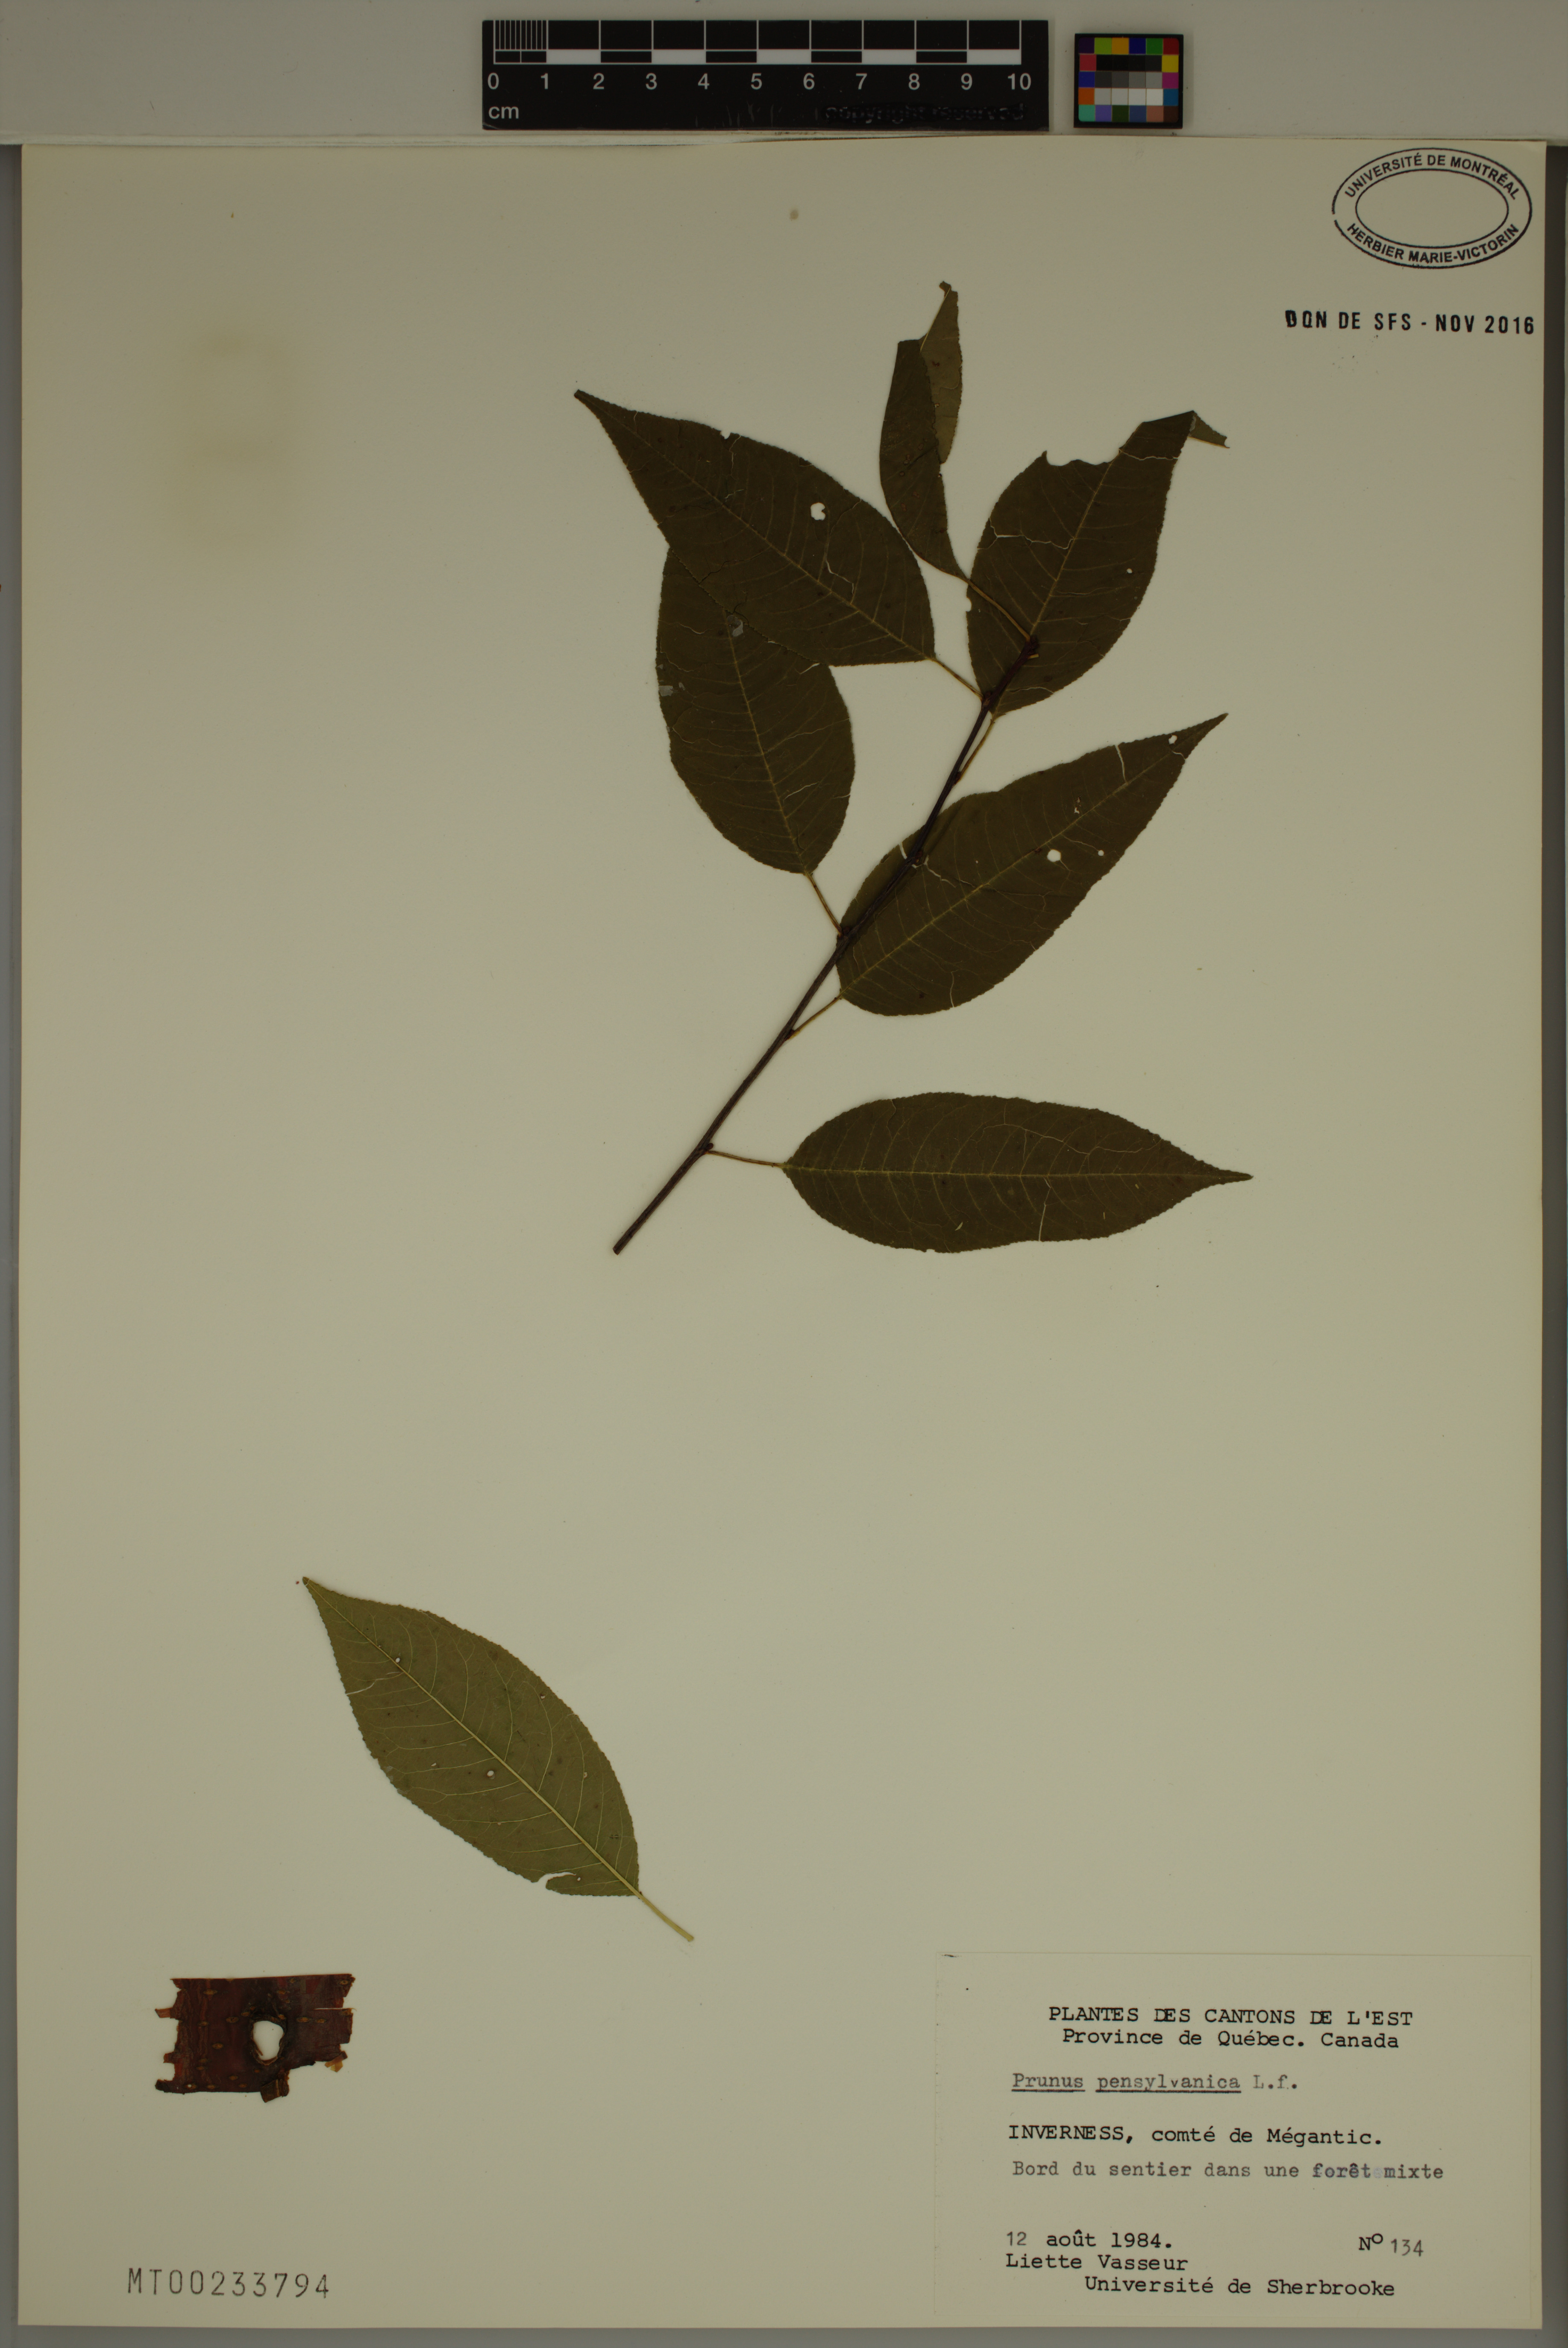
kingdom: Plantae
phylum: Tracheophyta
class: Magnoliopsida
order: Rosales
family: Rosaceae
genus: Prunus
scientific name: Prunus pensylvanica
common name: Pin cherry
